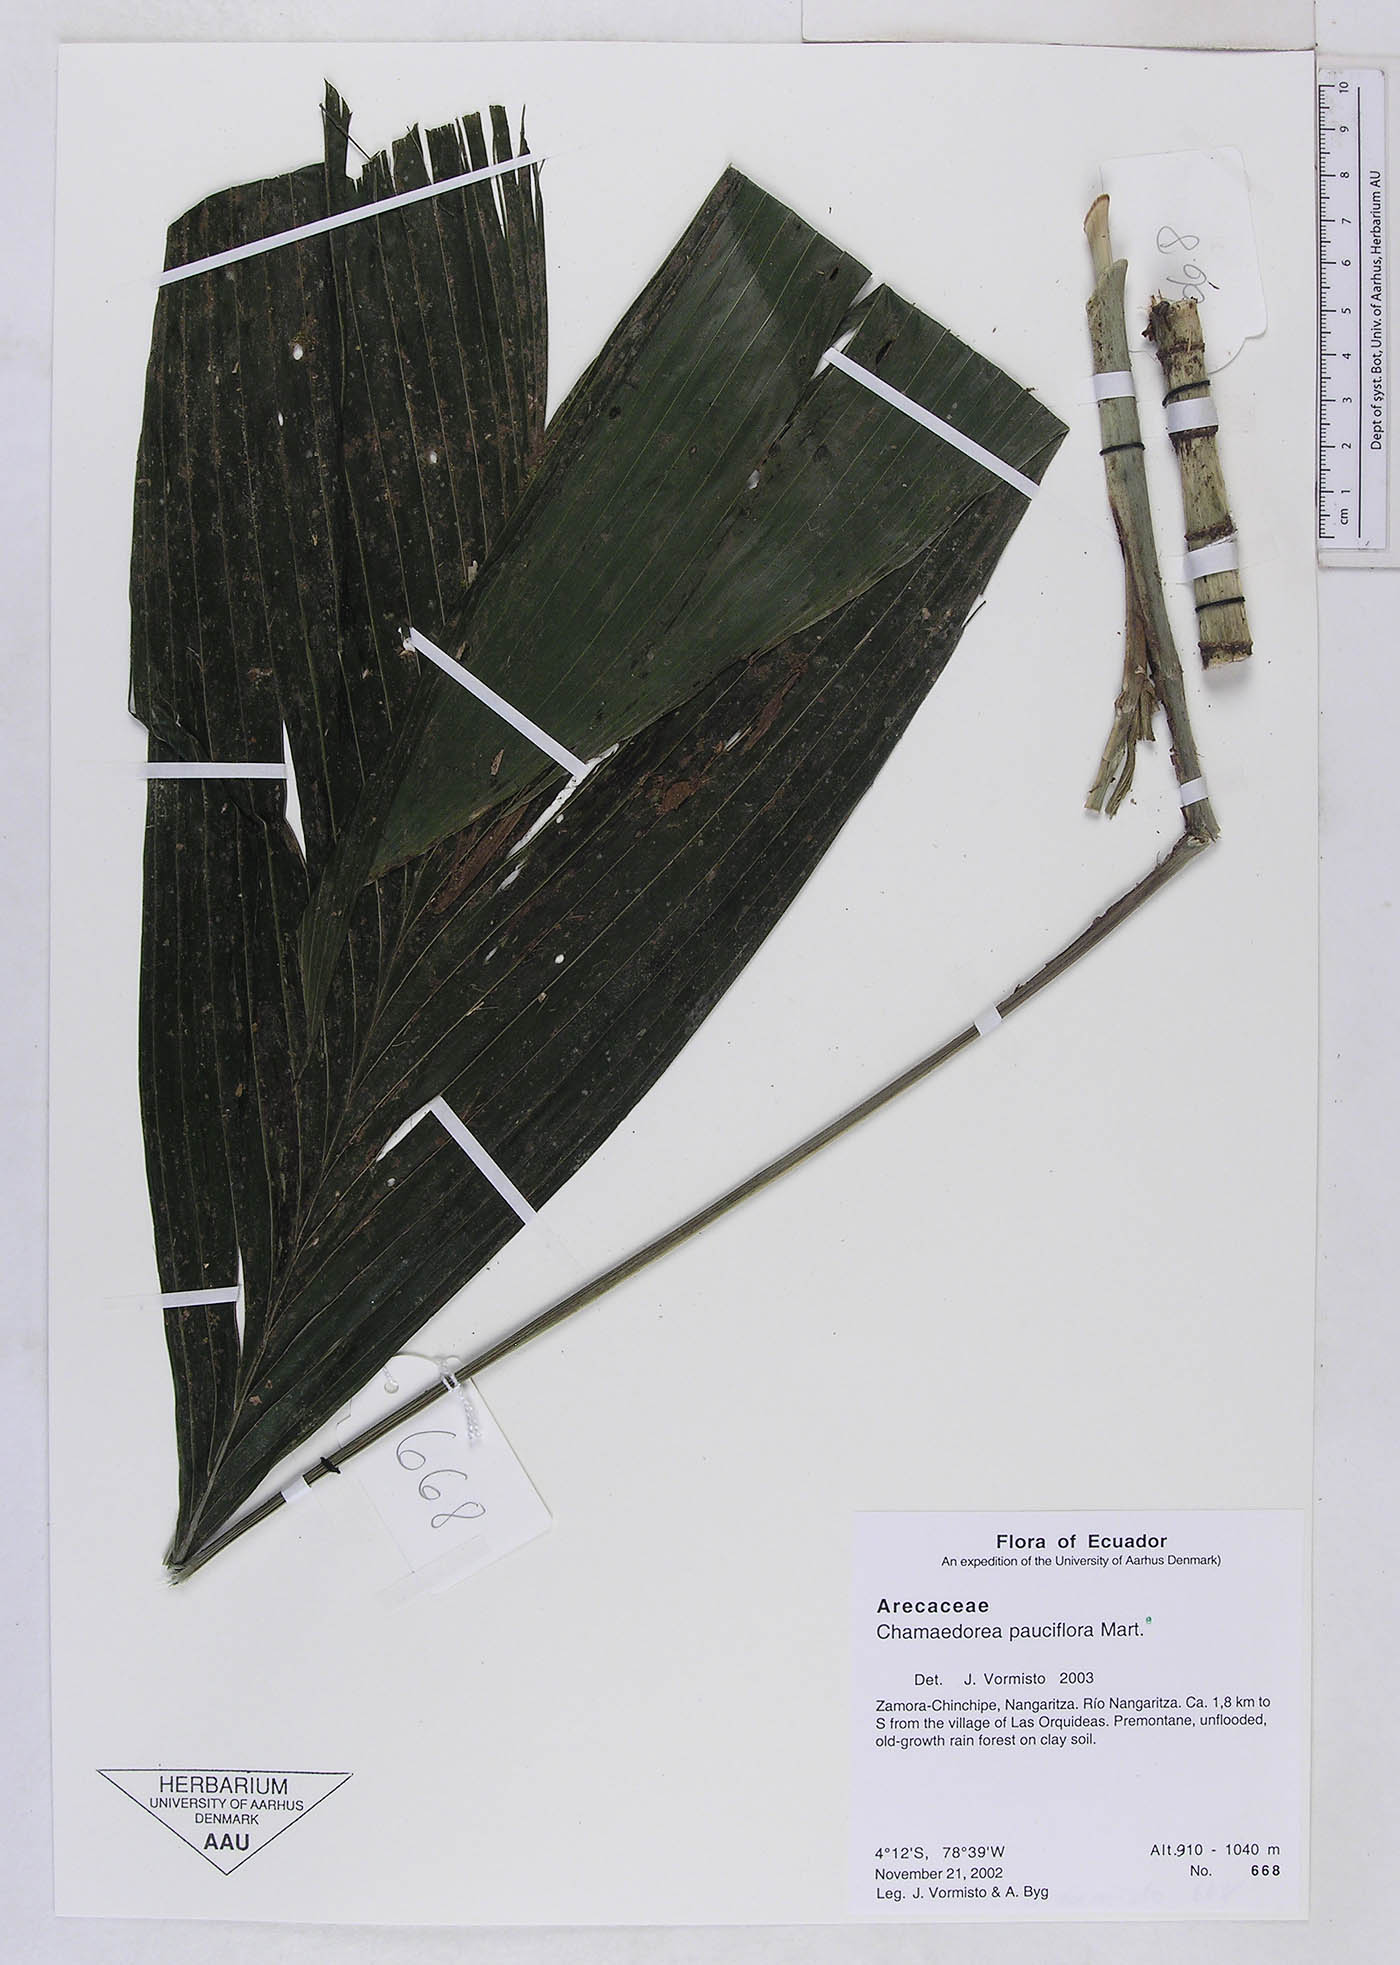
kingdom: Plantae
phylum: Tracheophyta
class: Liliopsida
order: Arecales
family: Arecaceae
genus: Chamaedorea
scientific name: Chamaedorea pauciflora
